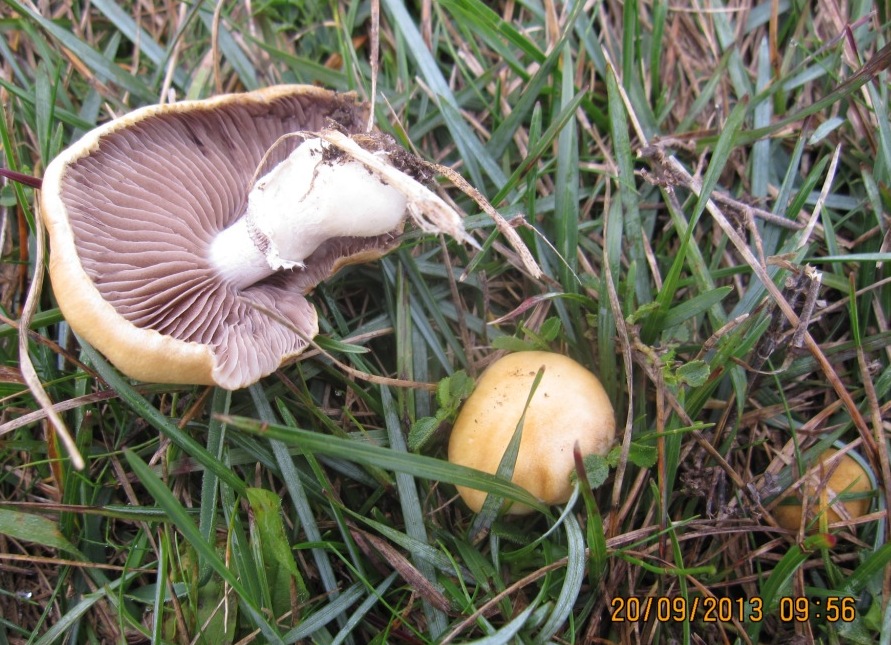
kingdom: Fungi
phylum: Basidiomycota
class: Agaricomycetes
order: Agaricales
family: Hymenogastraceae
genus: Psilocybe
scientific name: Psilocybe coronilla
